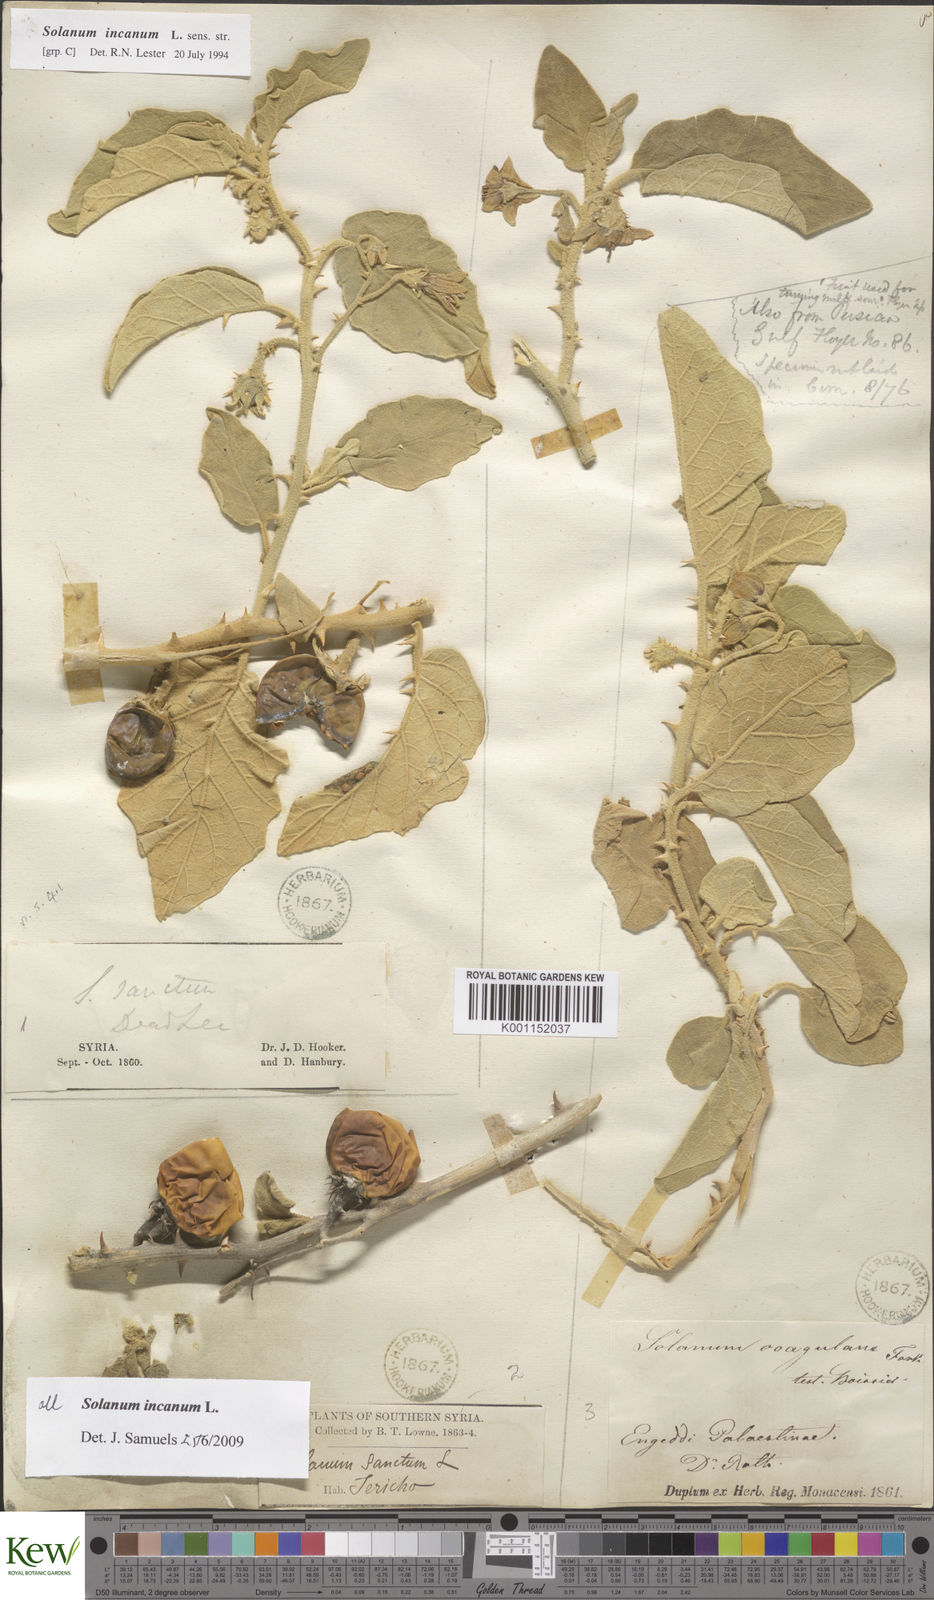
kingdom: Plantae
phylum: Tracheophyta
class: Magnoliopsida
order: Solanales
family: Solanaceae
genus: Solanum
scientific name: Solanum incanum
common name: Bitter apple
